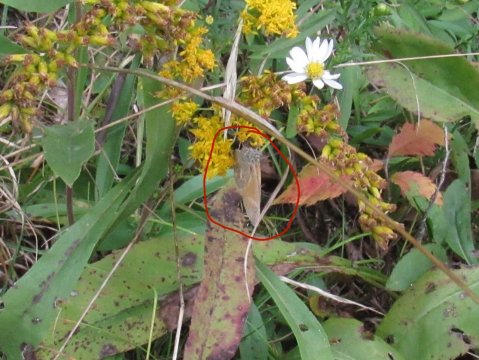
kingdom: Animalia
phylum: Arthropoda
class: Insecta
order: Lepidoptera
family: Nymphalidae
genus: Coenonympha
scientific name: Coenonympha tullia
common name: Large Heath
